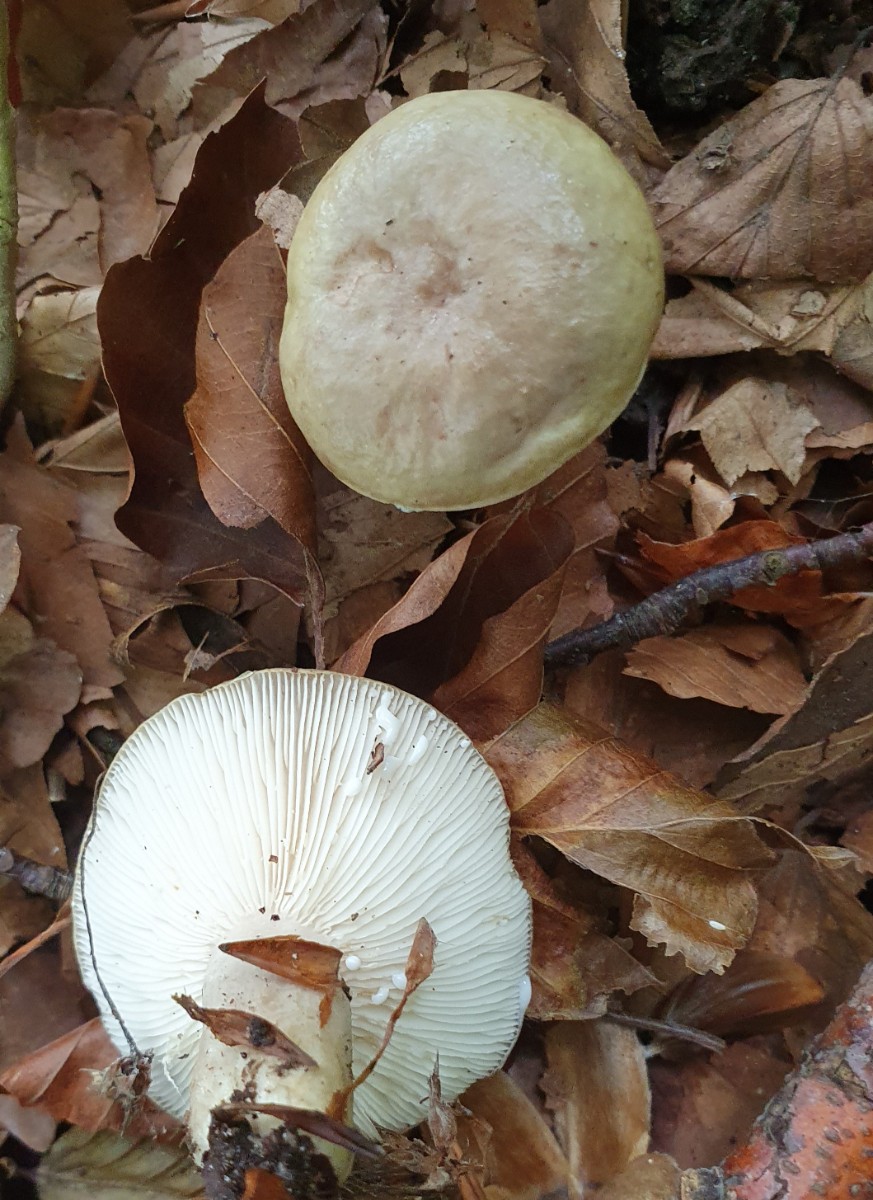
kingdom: Fungi
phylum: Basidiomycota
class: Agaricomycetes
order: Russulales
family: Russulaceae
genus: Lactarius
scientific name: Lactarius blennius
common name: dråbeplettet mælkehat
